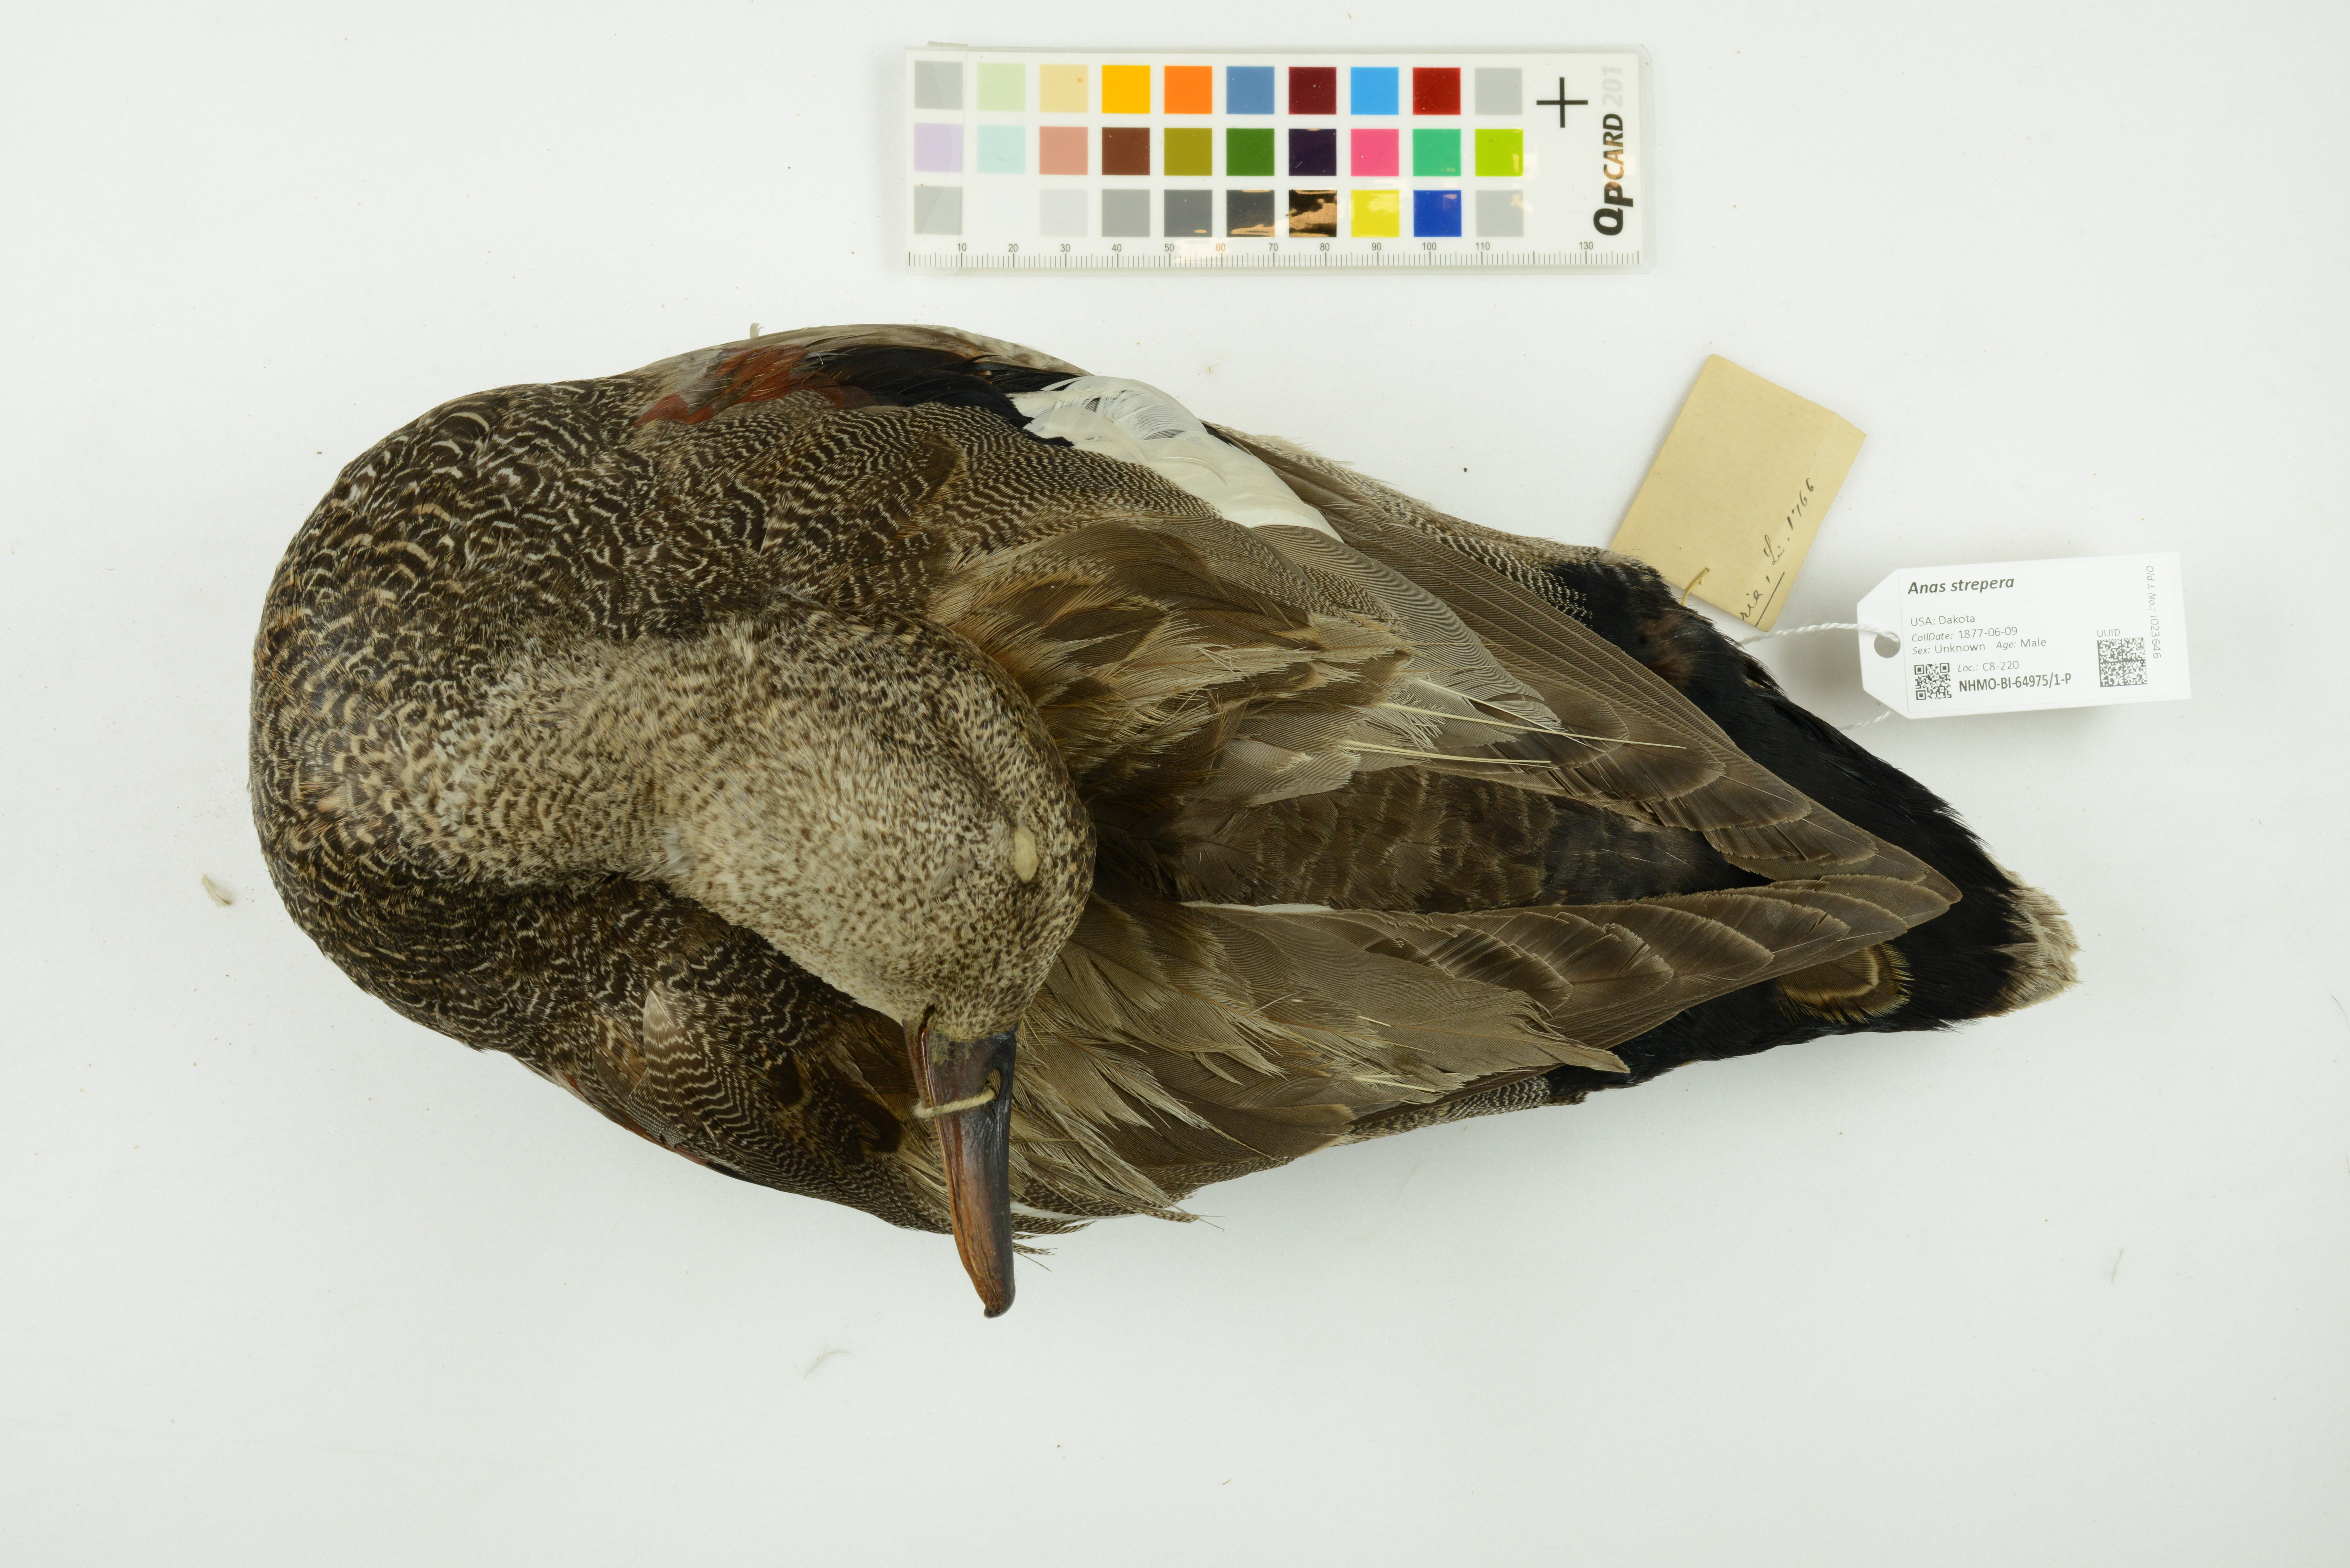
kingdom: Animalia
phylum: Chordata
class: Aves
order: Anseriformes
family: Anatidae
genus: Mareca
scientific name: Mareca strepera
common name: Gadwall
